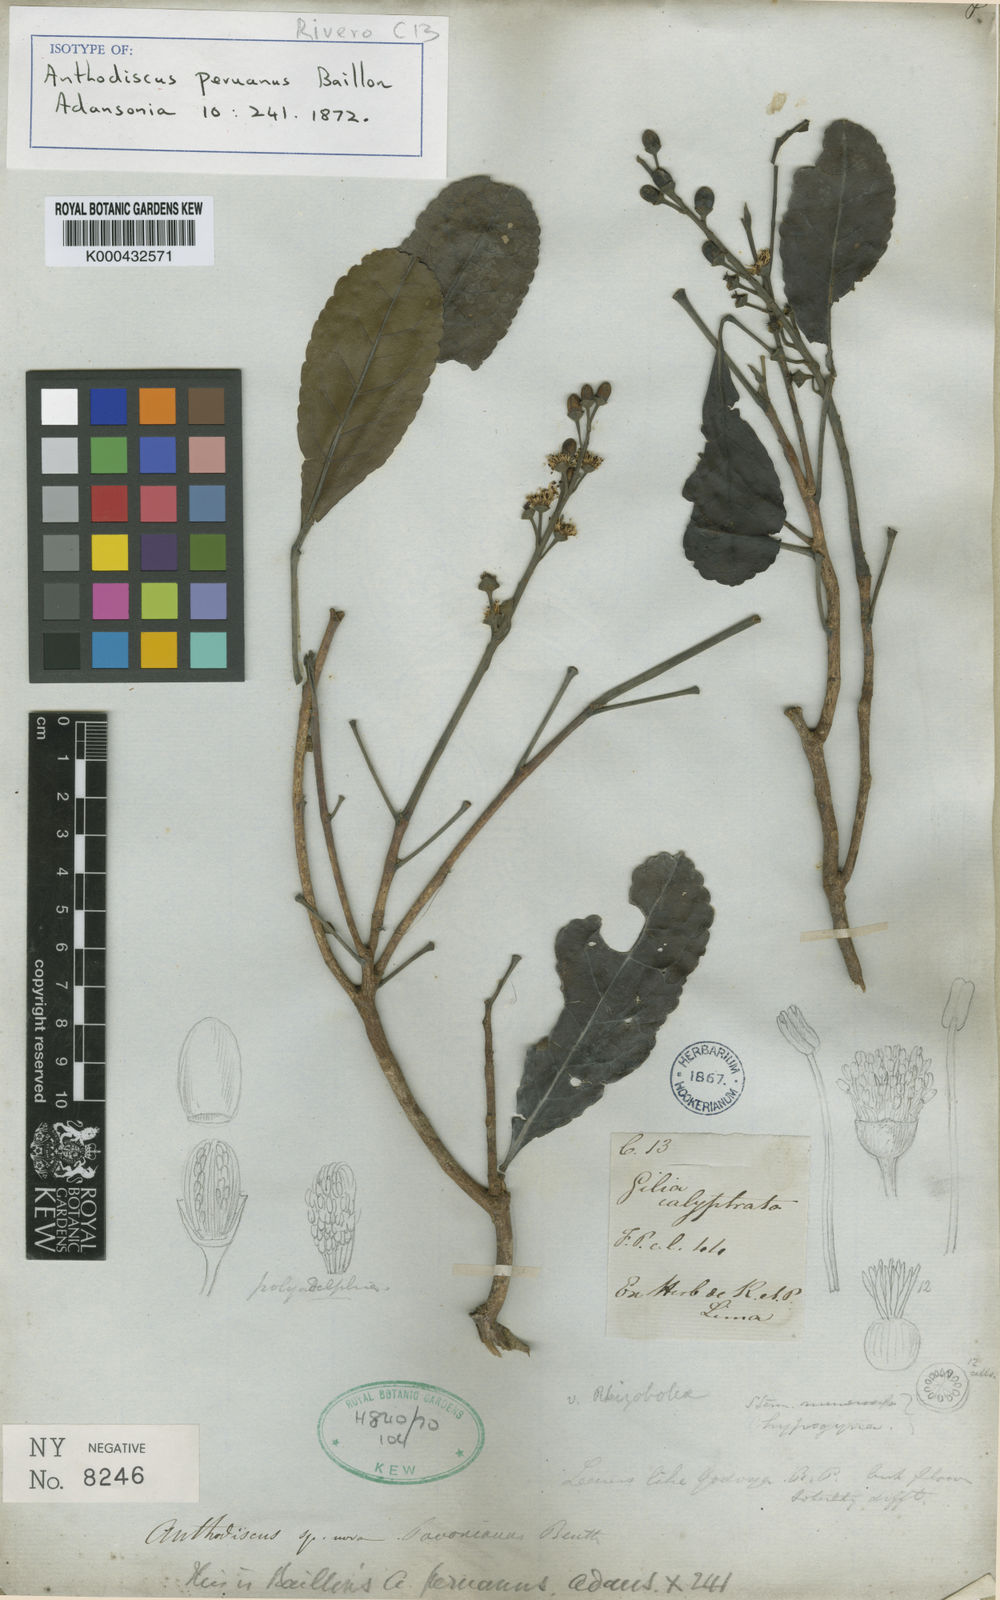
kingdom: Plantae
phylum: Tracheophyta
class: Magnoliopsida
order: Malpighiales
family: Caryocaraceae
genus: Anthodiscus
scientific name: Anthodiscus peruanus
